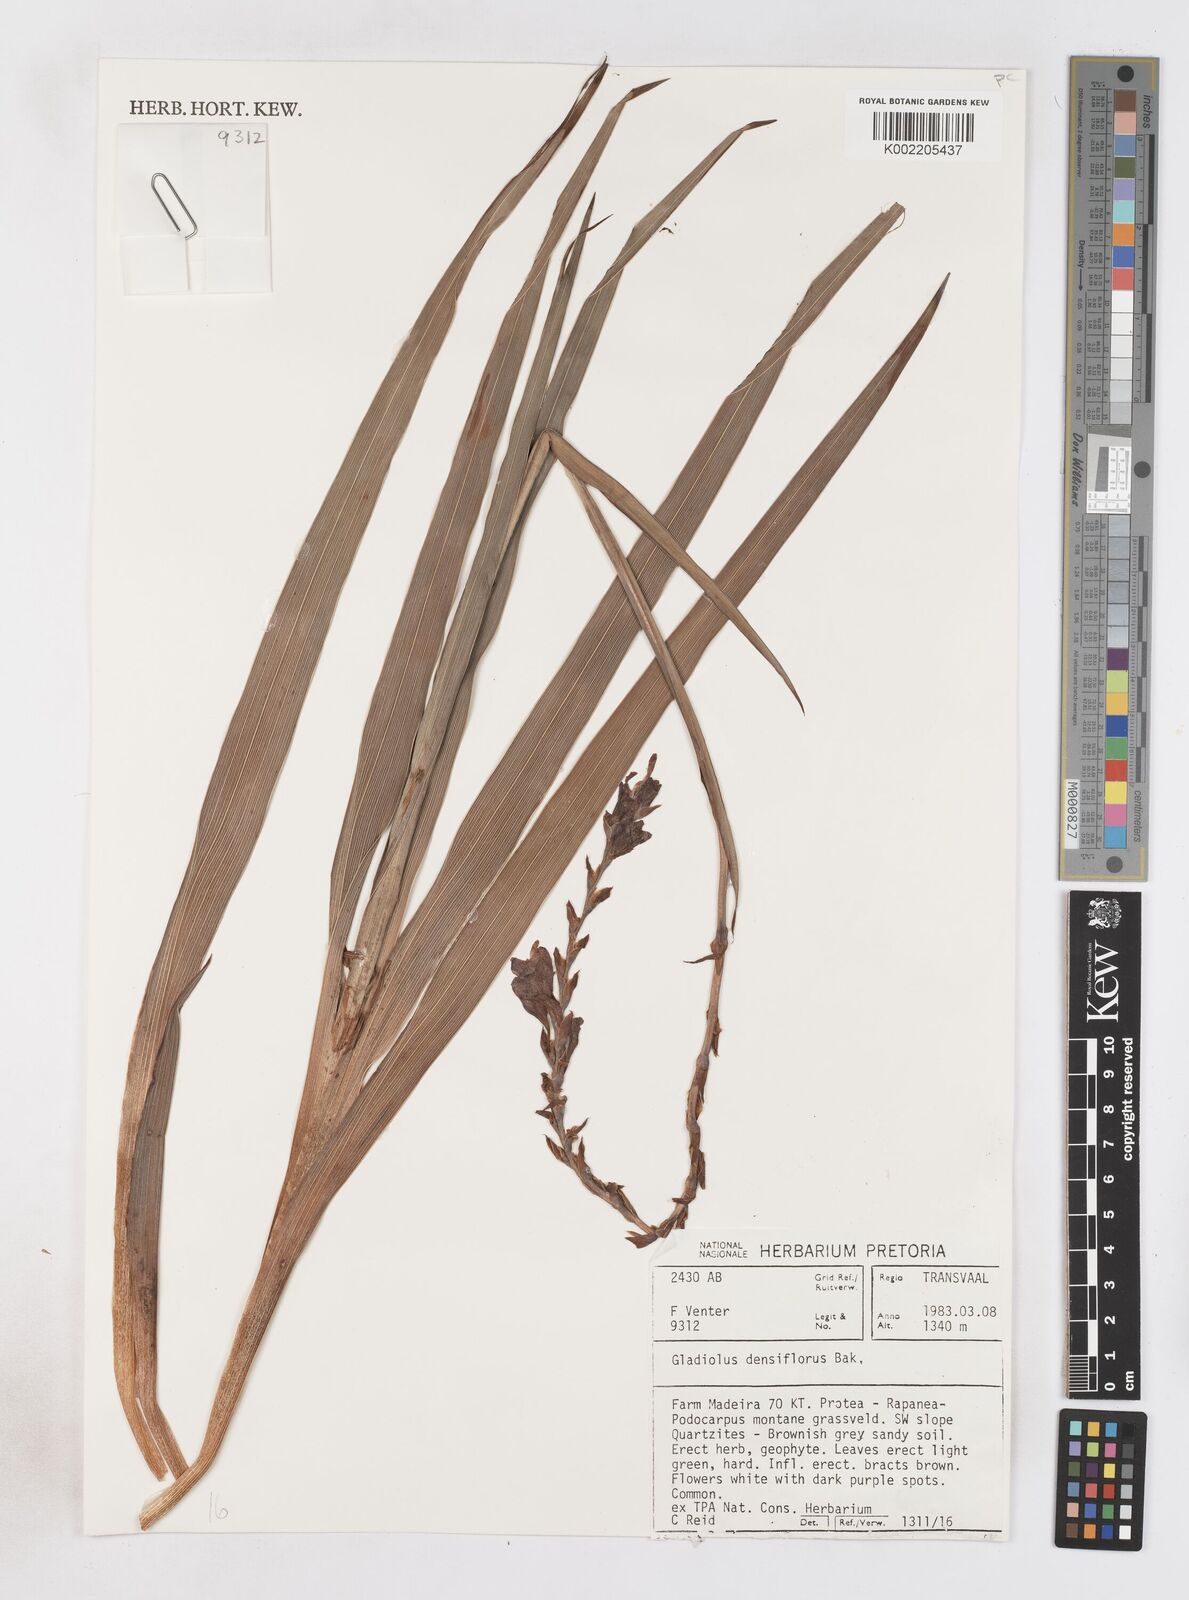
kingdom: Plantae
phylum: Tracheophyta
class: Liliopsida
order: Asparagales
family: Iridaceae
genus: Gladiolus
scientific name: Gladiolus densiflorus
